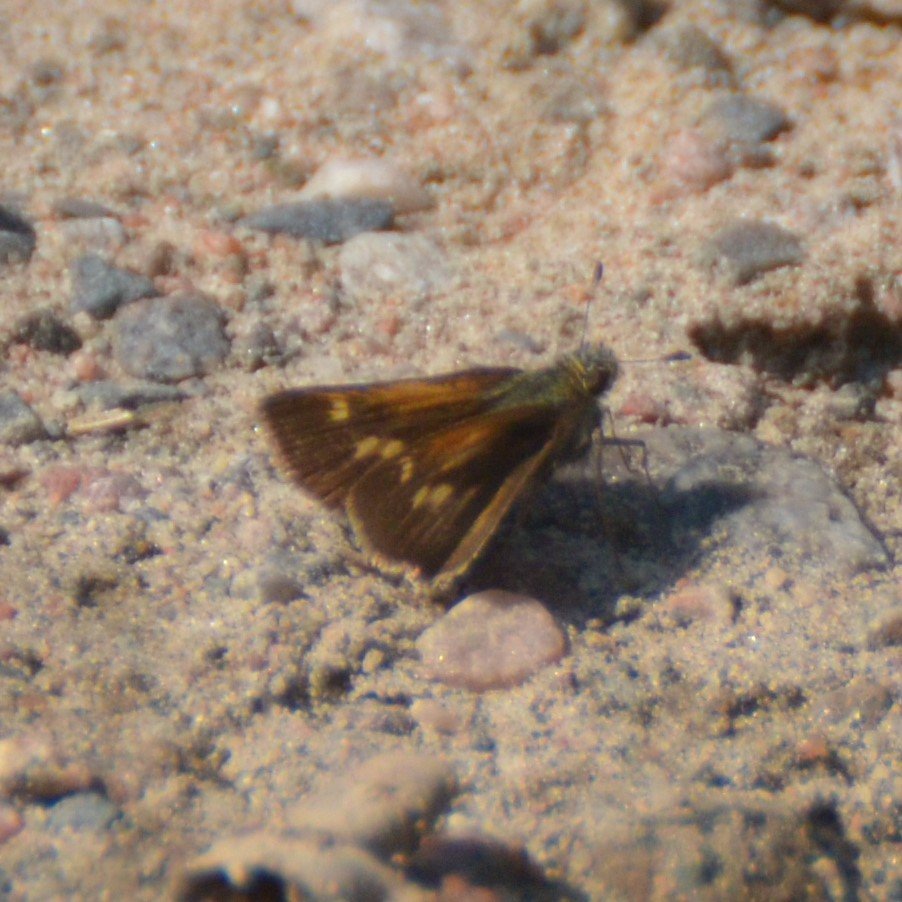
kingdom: Animalia
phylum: Arthropoda
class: Insecta
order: Lepidoptera
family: Hesperiidae
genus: Polites
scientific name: Polites coras
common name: Peck's Skipper
